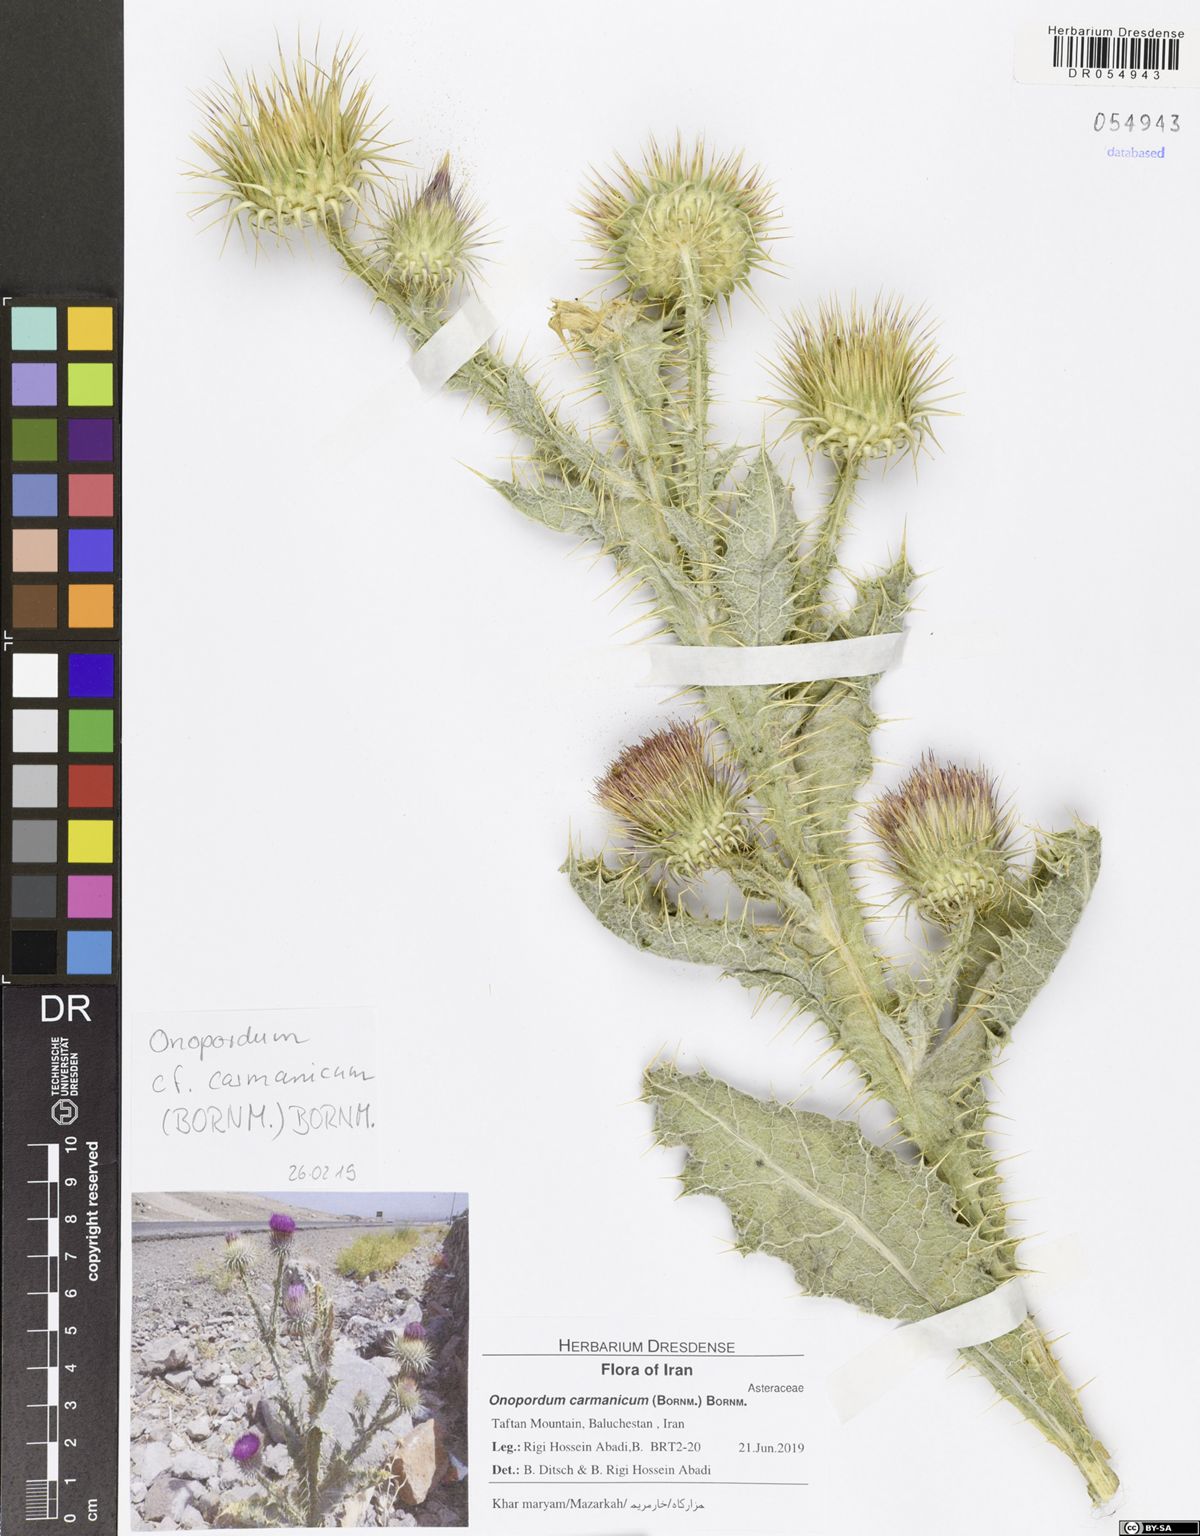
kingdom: Plantae
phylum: Tracheophyta
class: Magnoliopsida
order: Asterales
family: Asteraceae
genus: Onopordum
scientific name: Onopordum carmanicum
